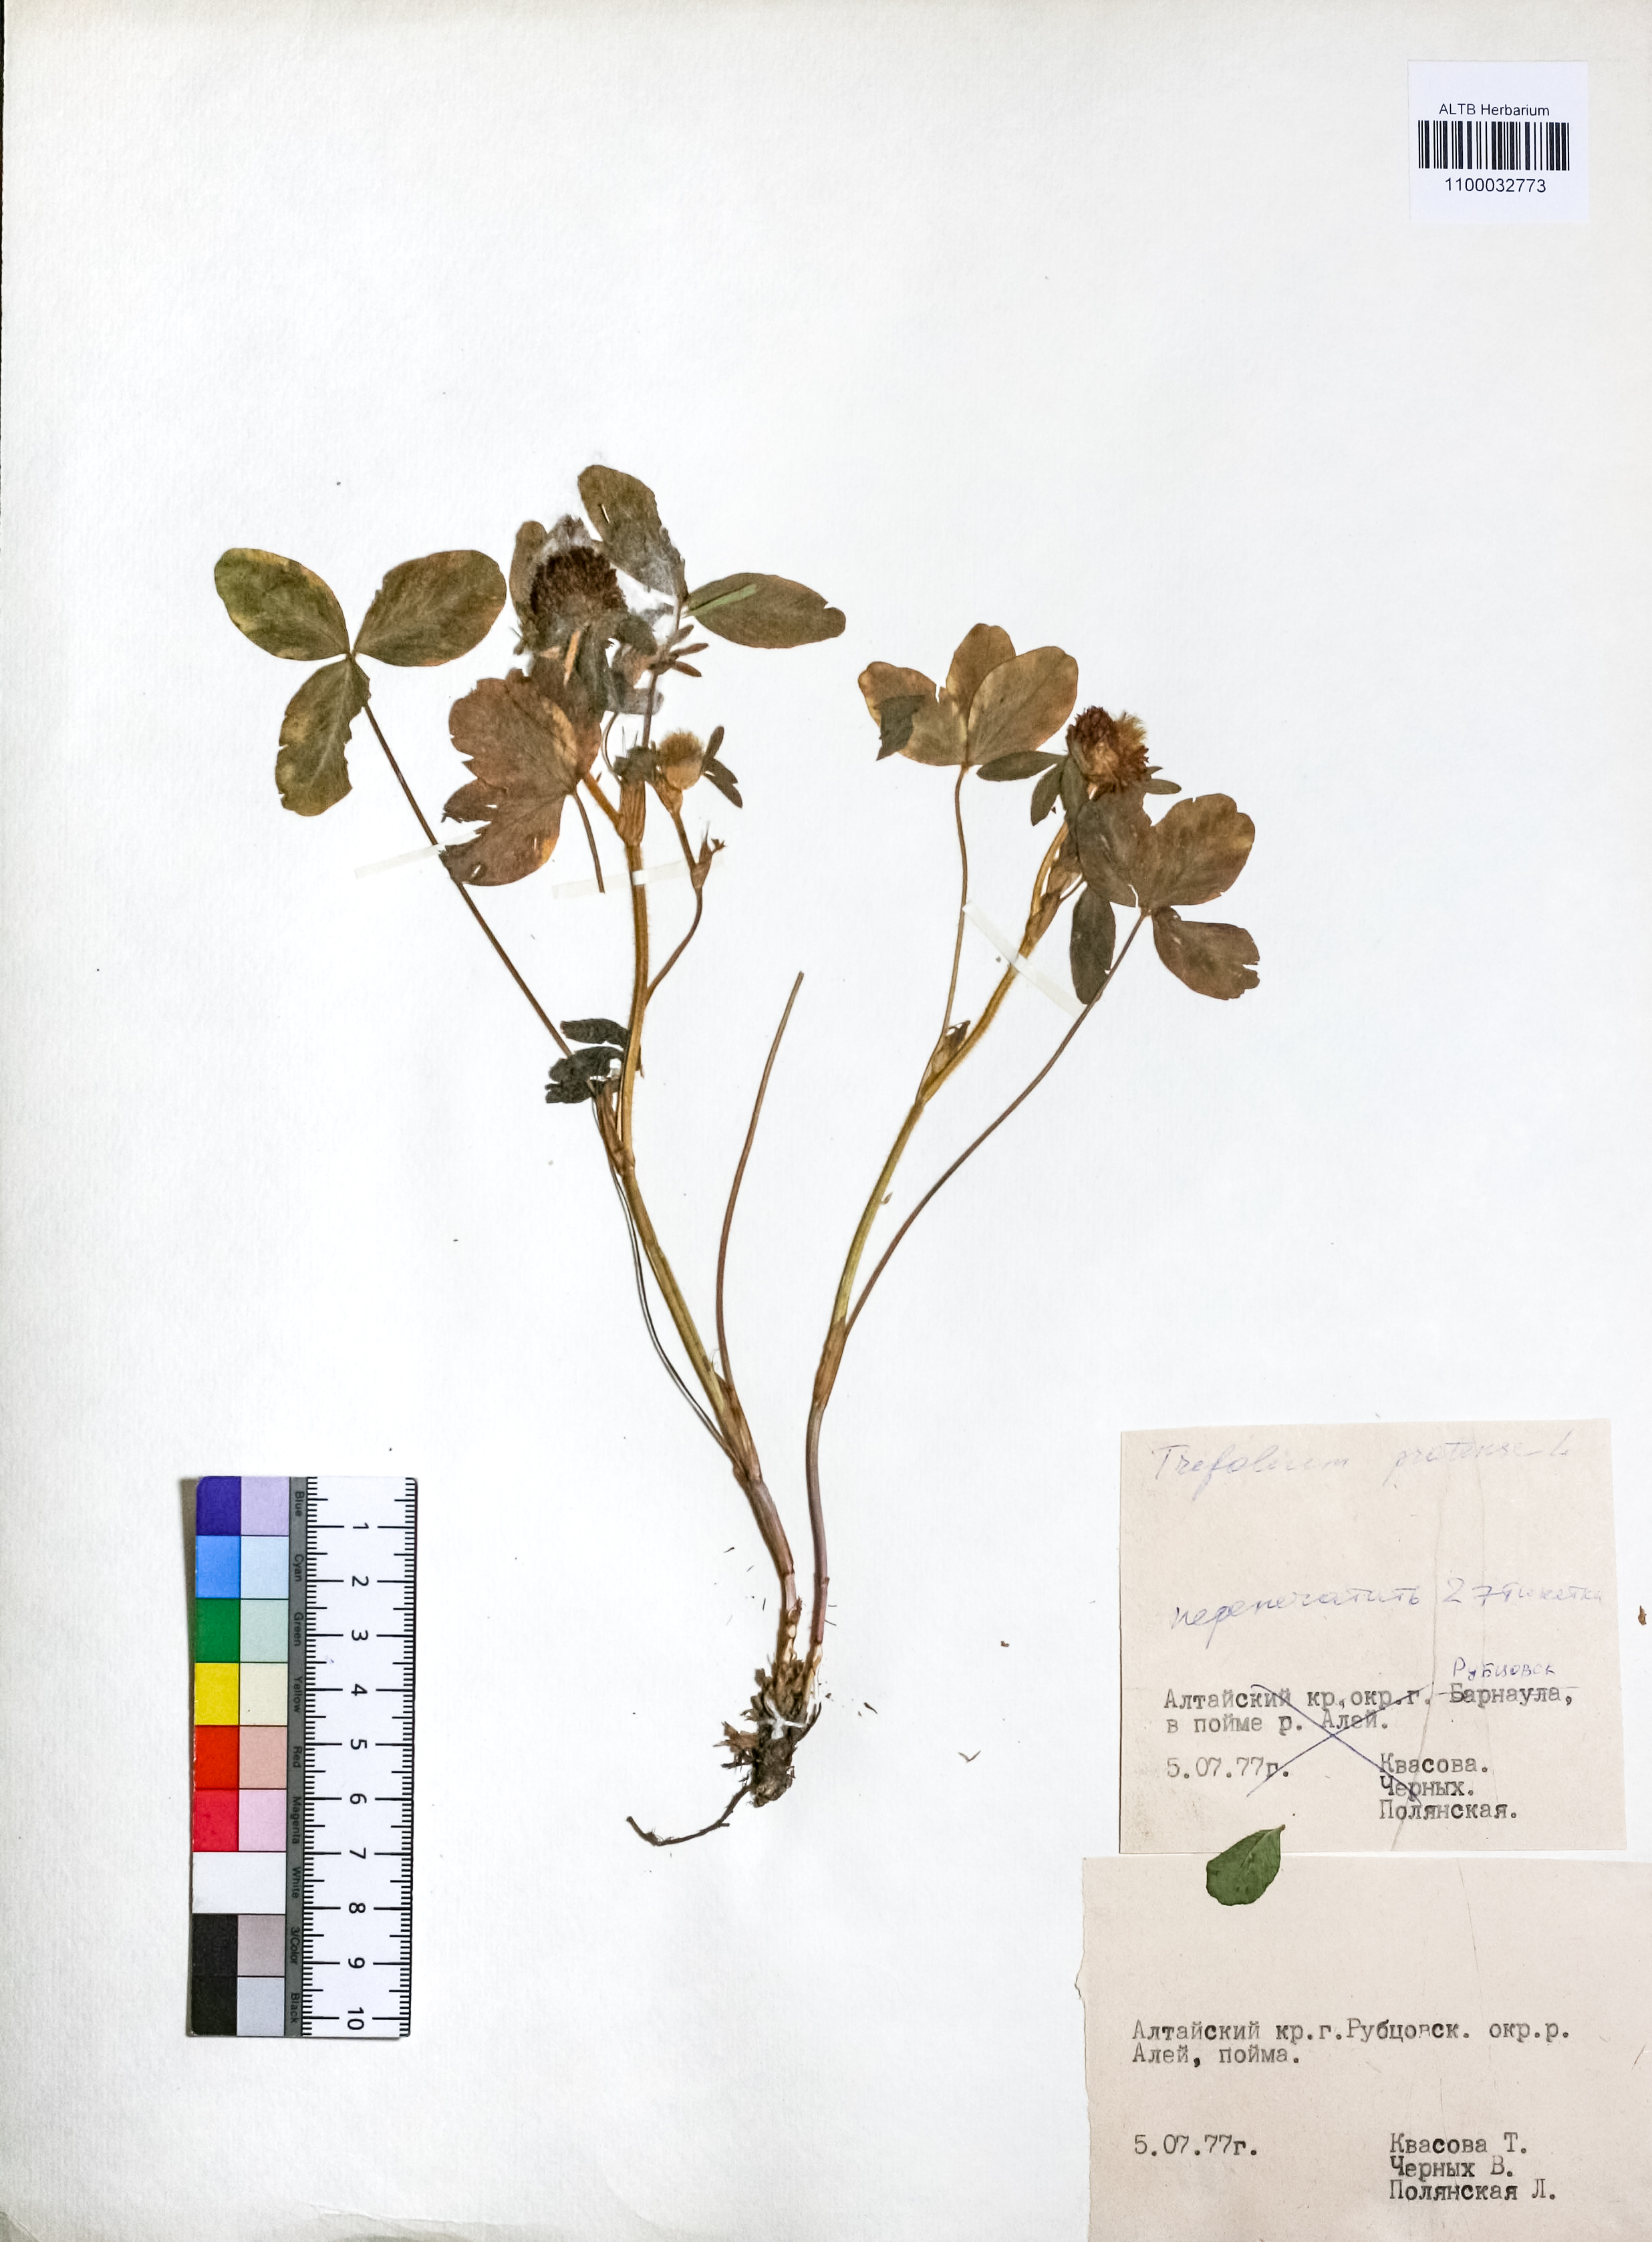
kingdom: Plantae
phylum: Tracheophyta
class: Magnoliopsida
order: Fabales
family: Fabaceae
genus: Trifolium
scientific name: Trifolium pratense
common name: Red clover
